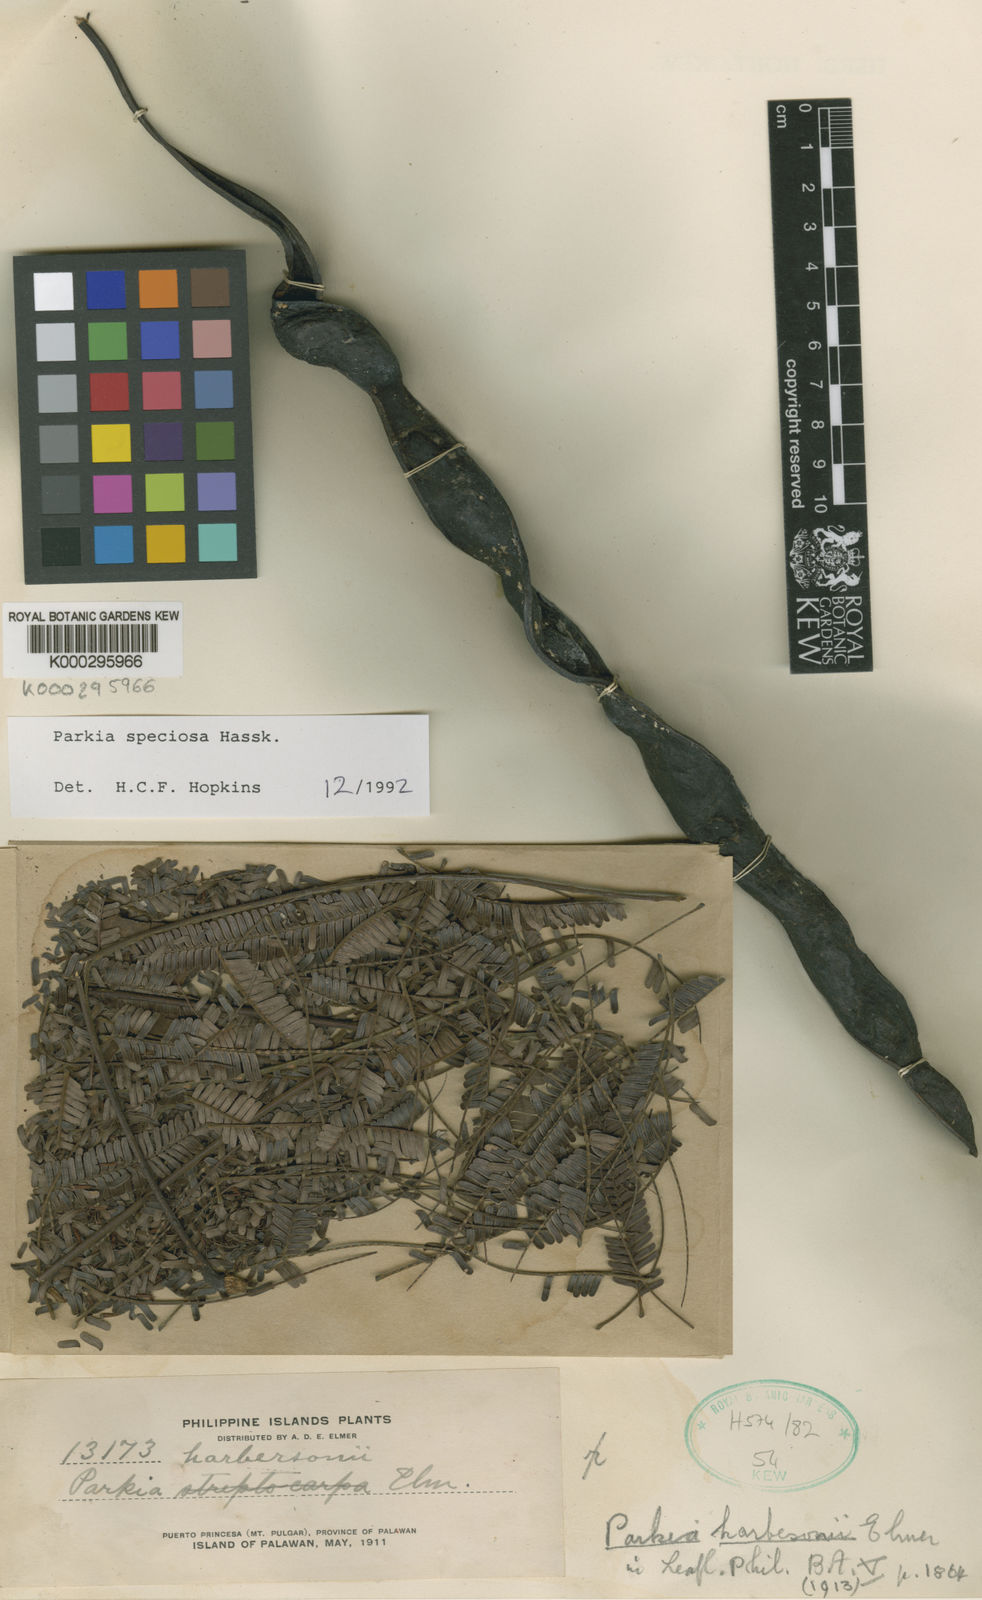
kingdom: Plantae
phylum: Tracheophyta
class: Magnoliopsida
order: Fabales
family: Fabaceae
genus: Parkia
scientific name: Parkia speciosa
